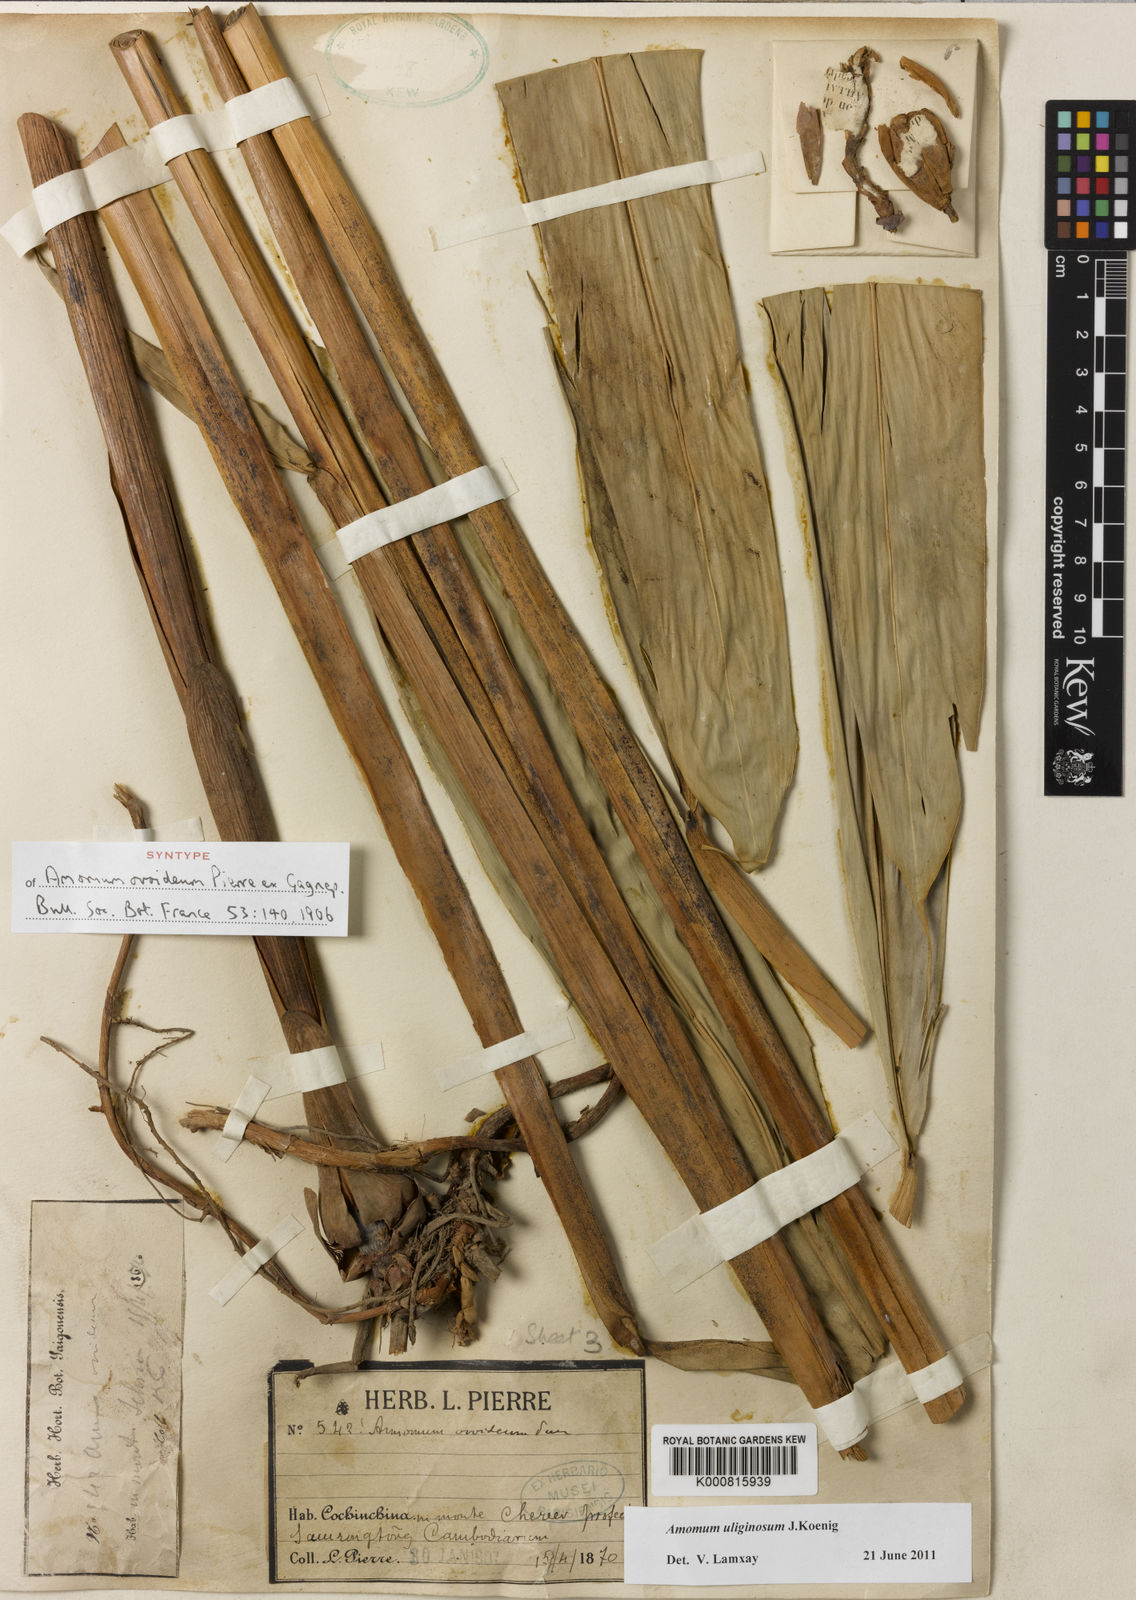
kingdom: Plantae
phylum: Tracheophyta
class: Liliopsida
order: Zingiberales
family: Zingiberaceae
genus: Wurfbainia
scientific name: Wurfbainia uliginosa
